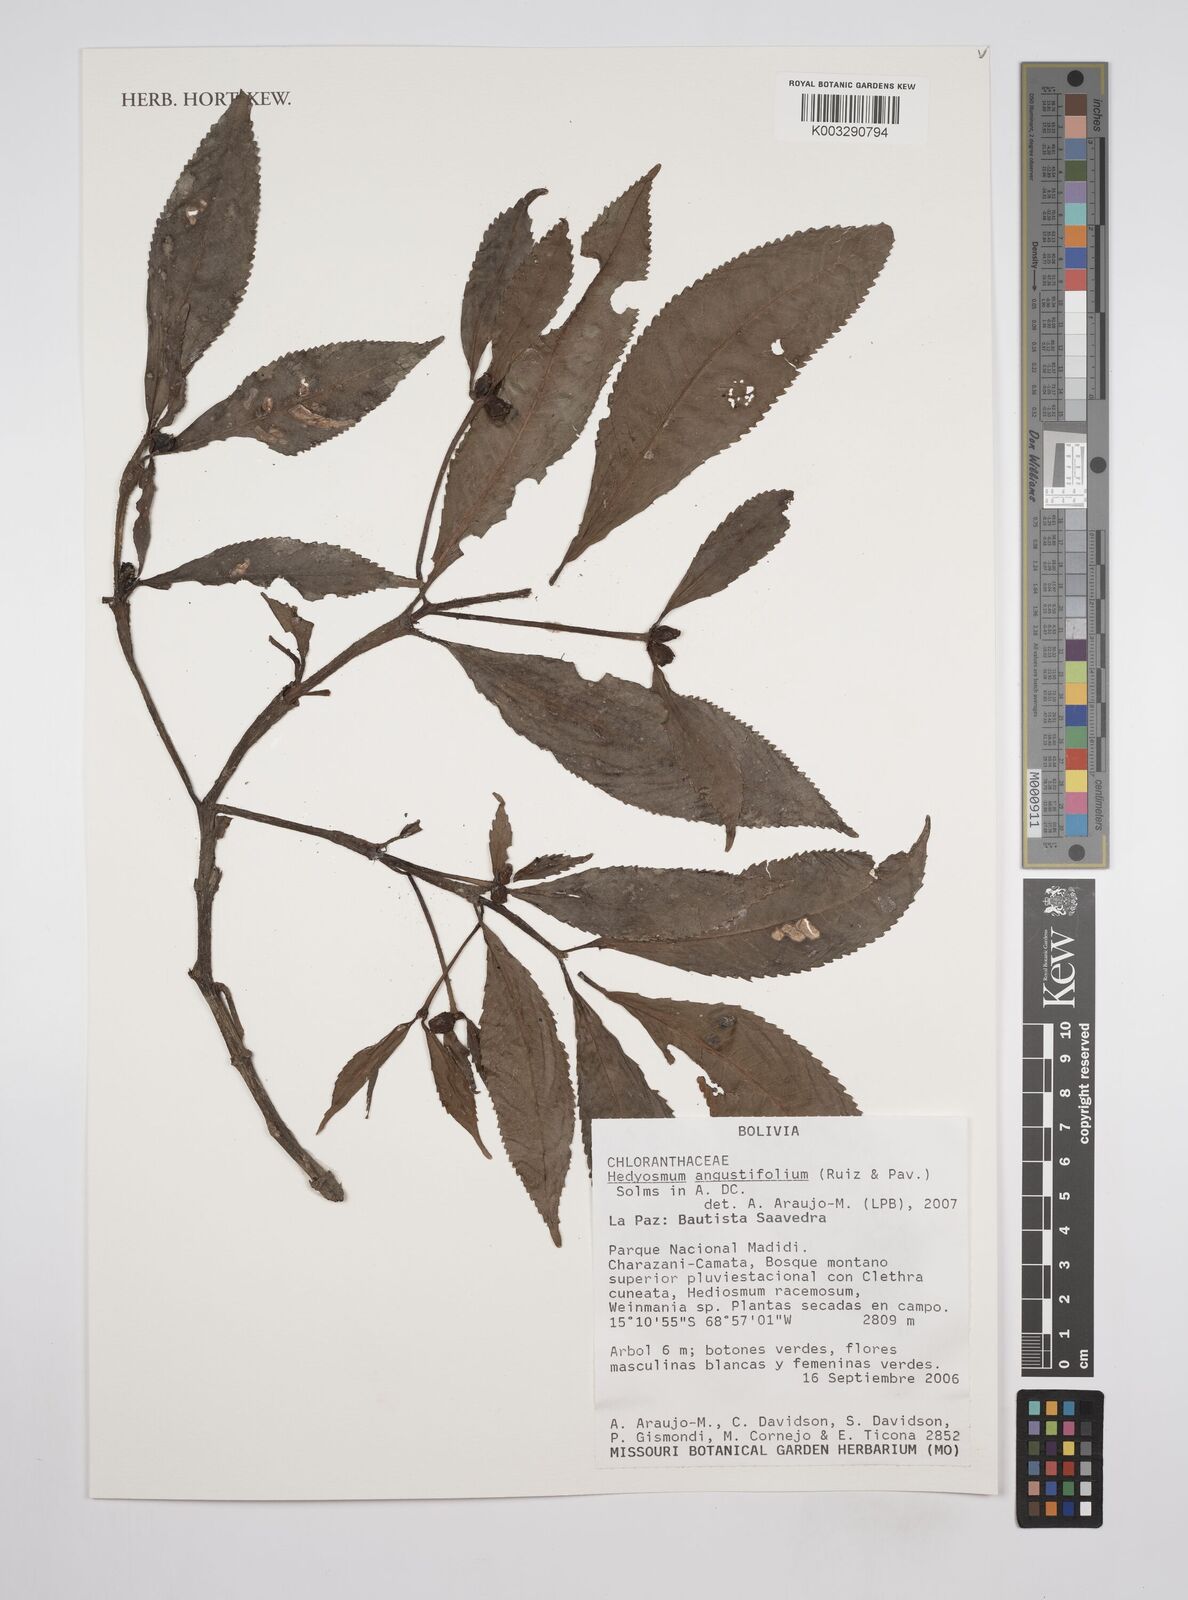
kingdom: Plantae
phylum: Tracheophyta
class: Magnoliopsida
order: Chloranthales
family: Chloranthaceae
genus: Hedyosmum
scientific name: Hedyosmum angustifolium
